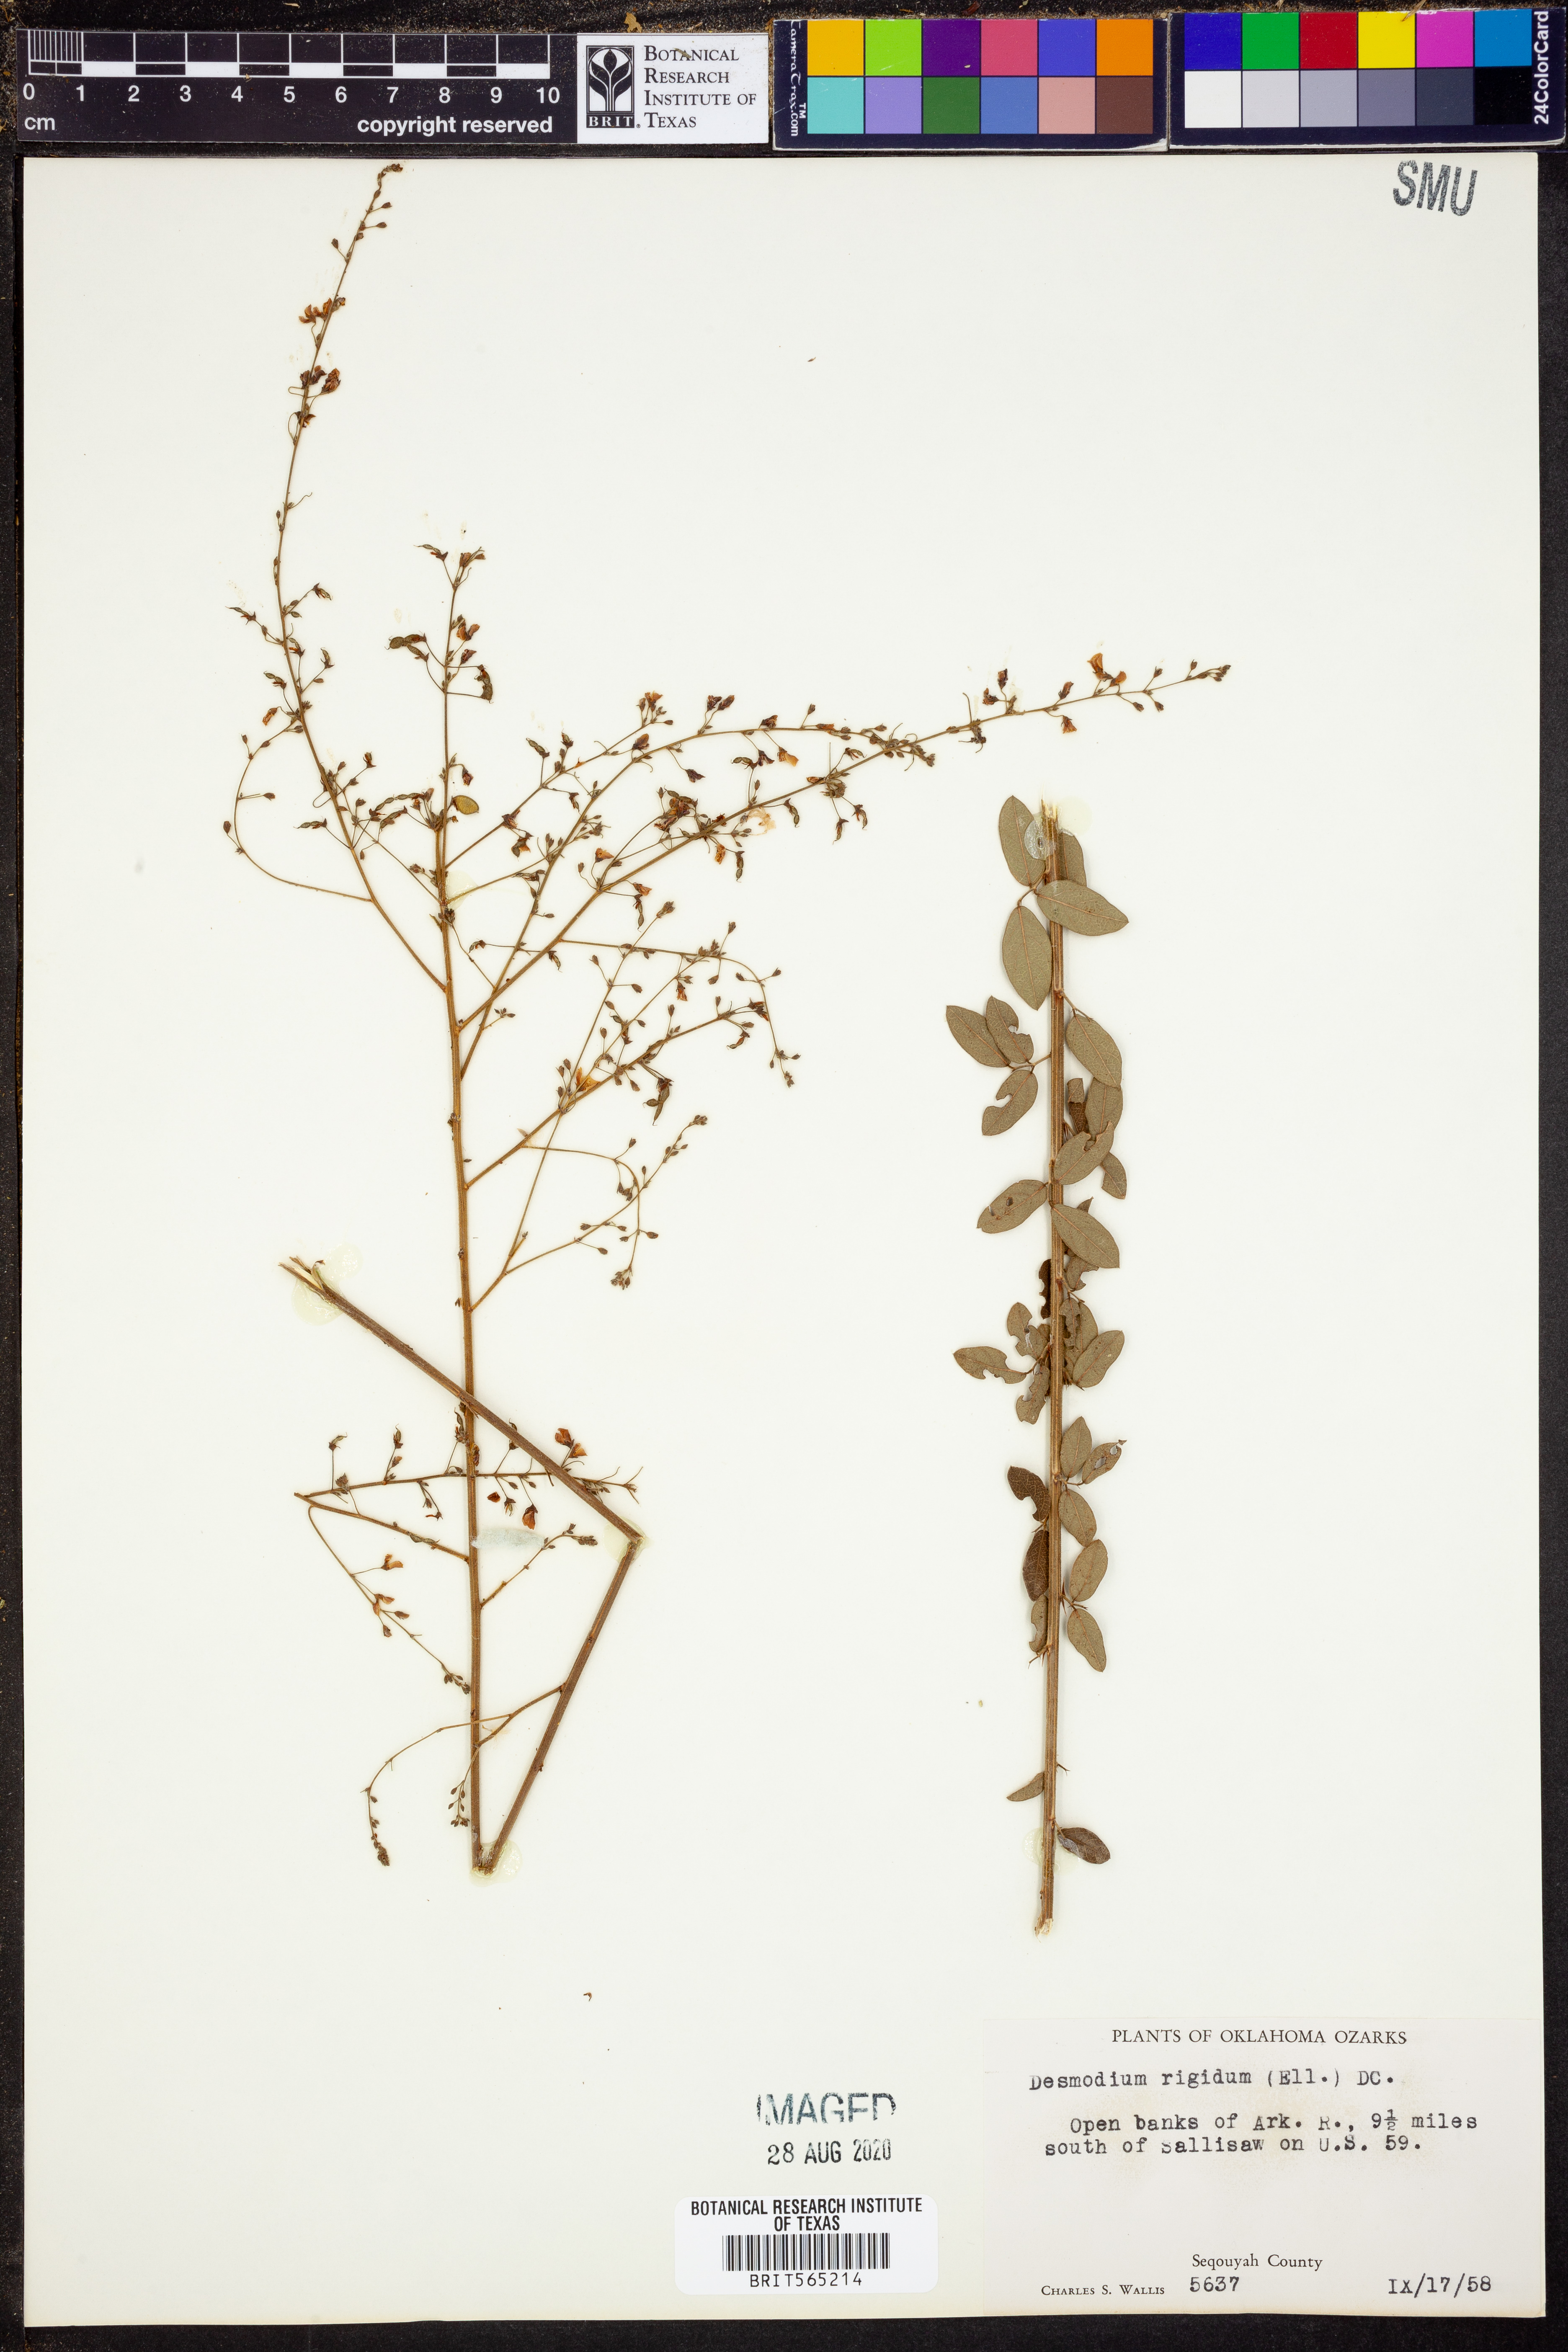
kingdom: Plantae
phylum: Tracheophyta
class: Magnoliopsida
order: Fabales
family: Fabaceae
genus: Desmodium
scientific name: Desmodium obtusum
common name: Stiff tick trefoil
